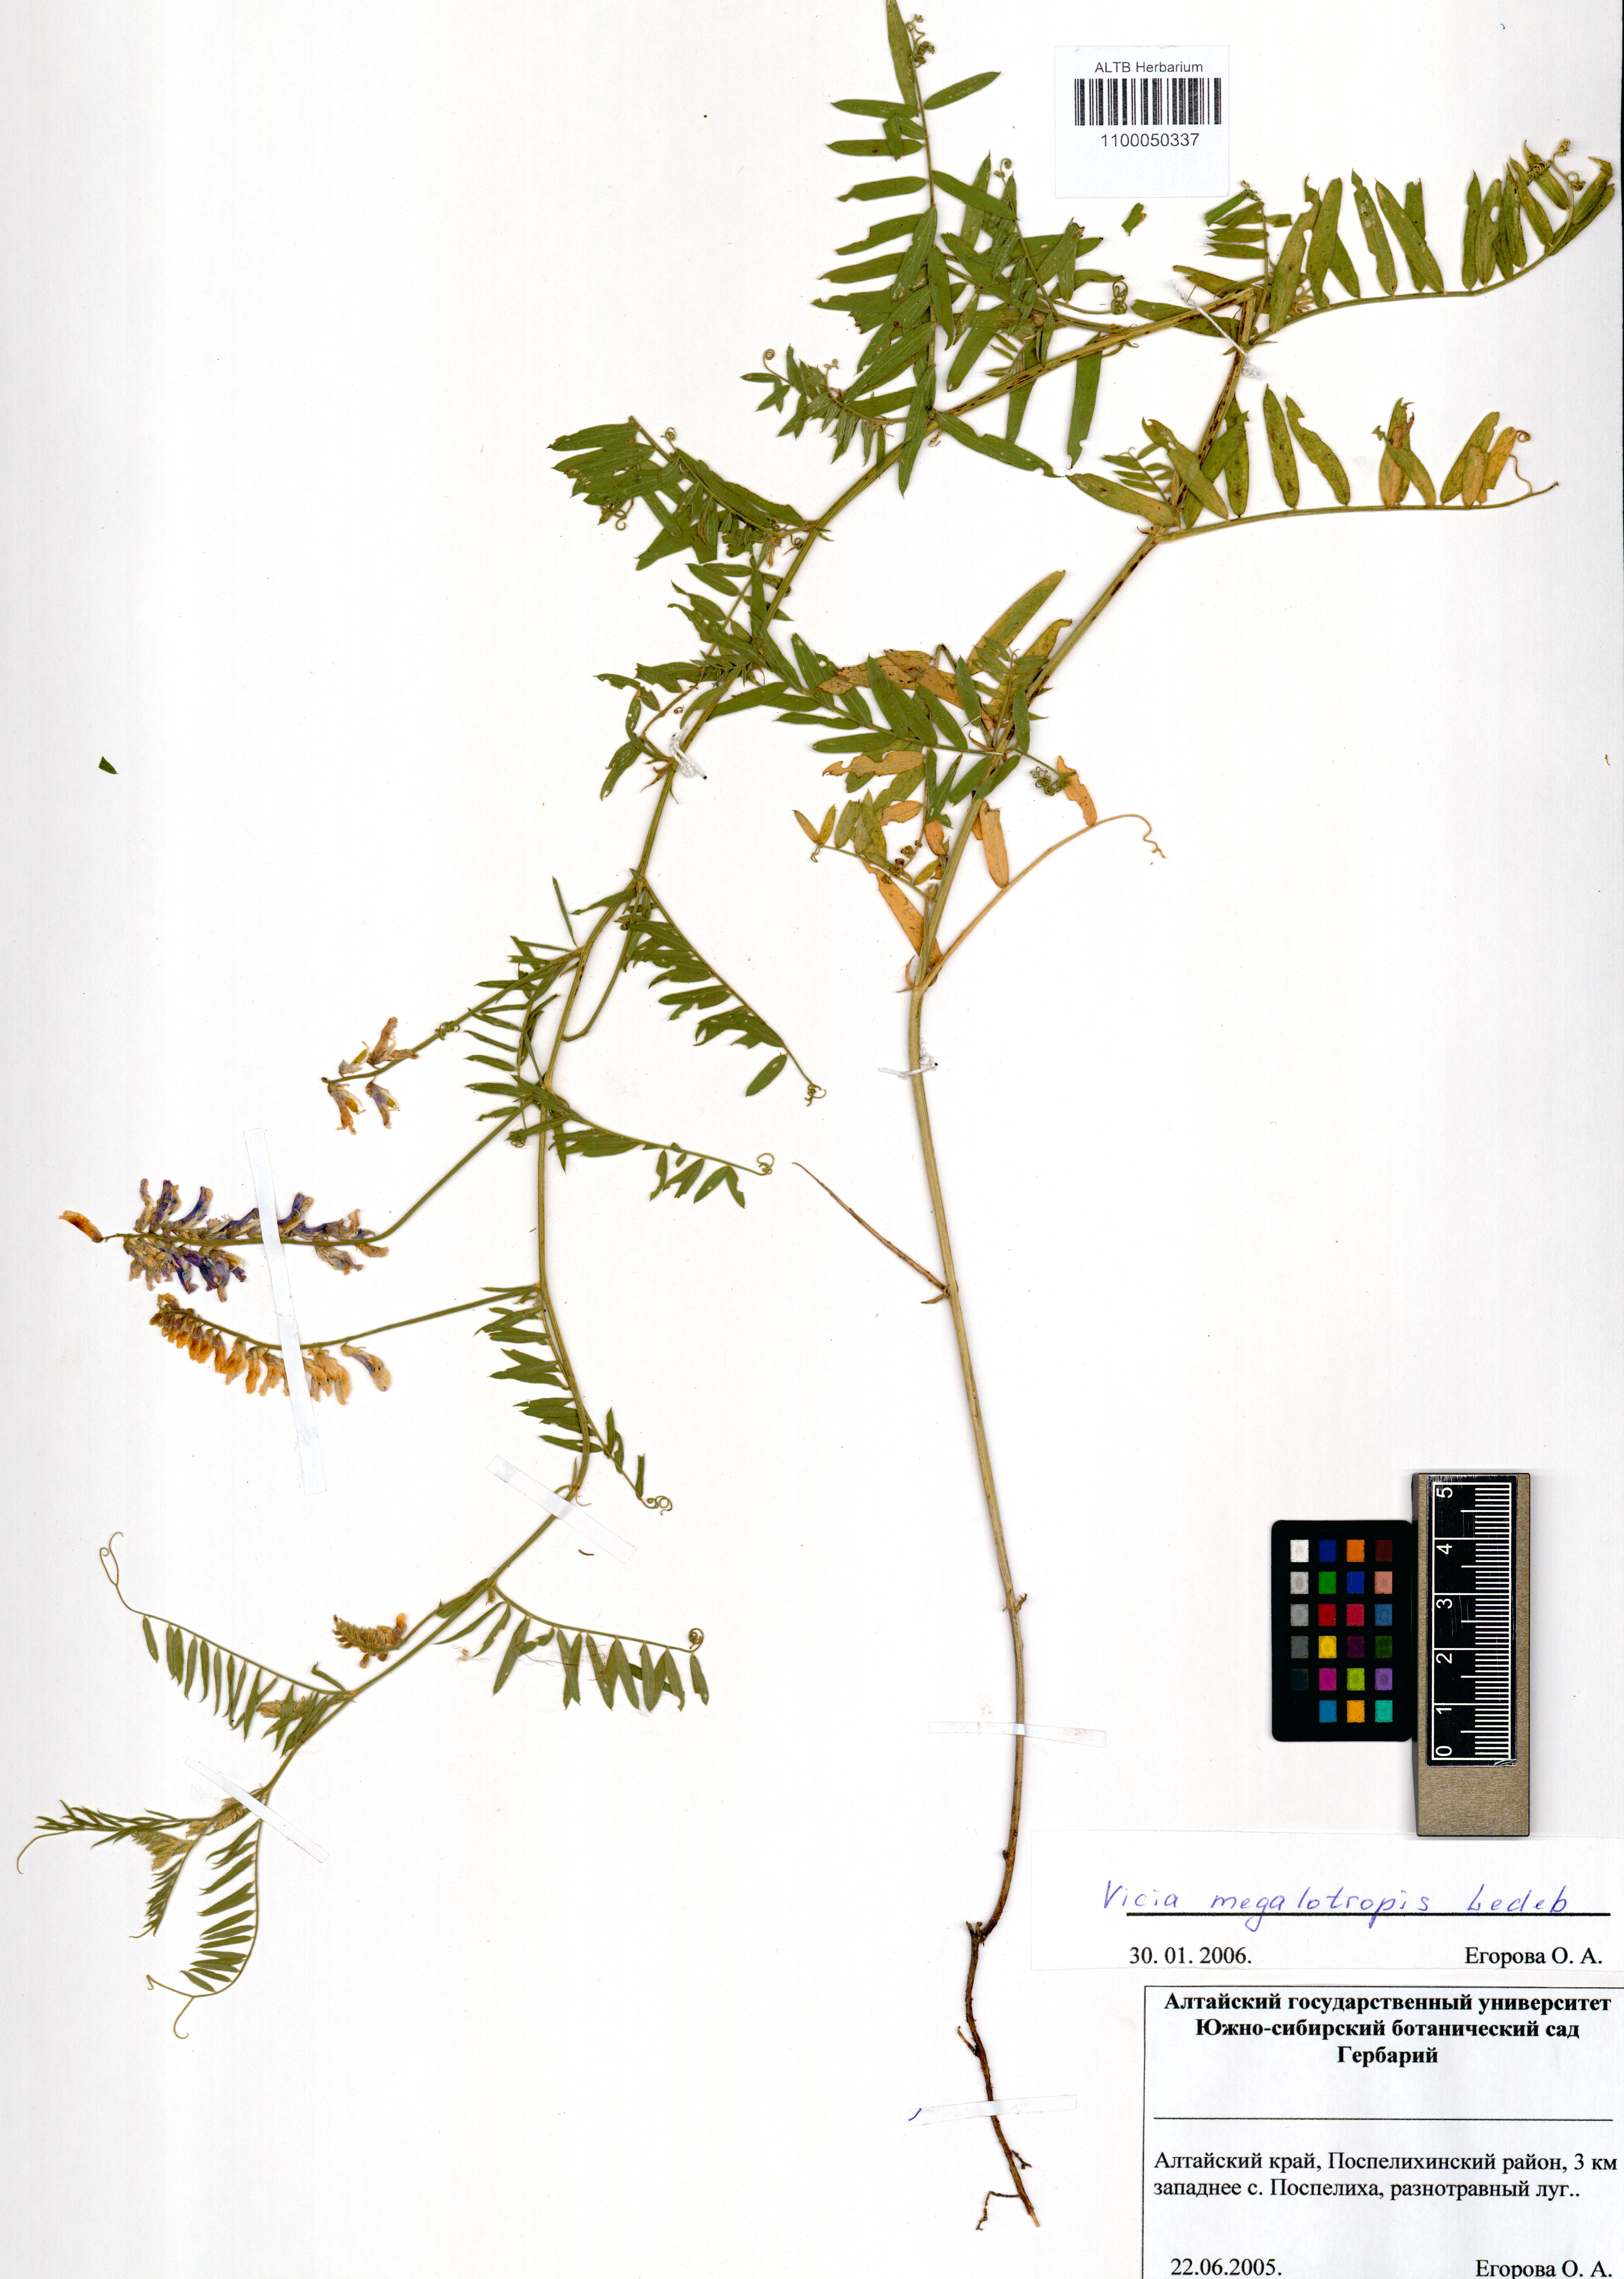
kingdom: Plantae
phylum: Tracheophyta
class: Magnoliopsida
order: Fabales
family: Fabaceae
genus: Vicia
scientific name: Vicia megalotropis
